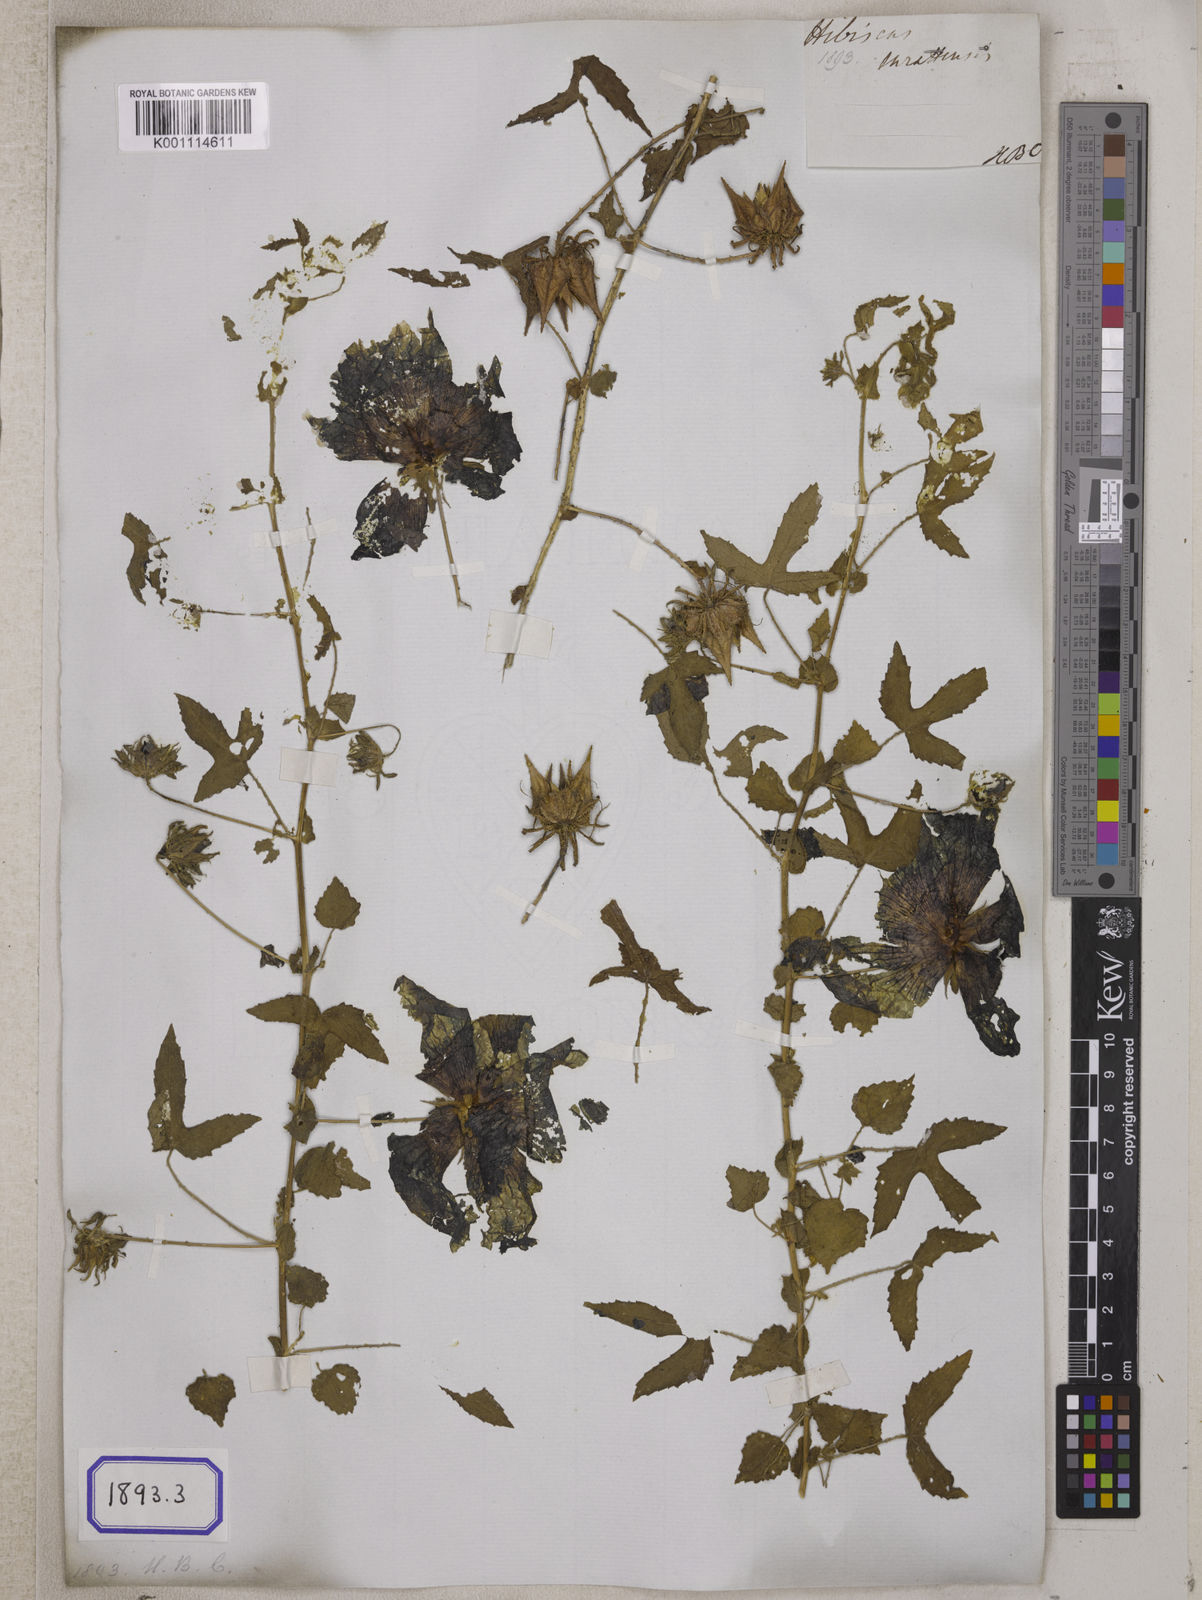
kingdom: Plantae
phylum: Tracheophyta
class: Magnoliopsida
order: Malvales
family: Malvaceae
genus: Hibiscus
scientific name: Hibiscus surattensis
